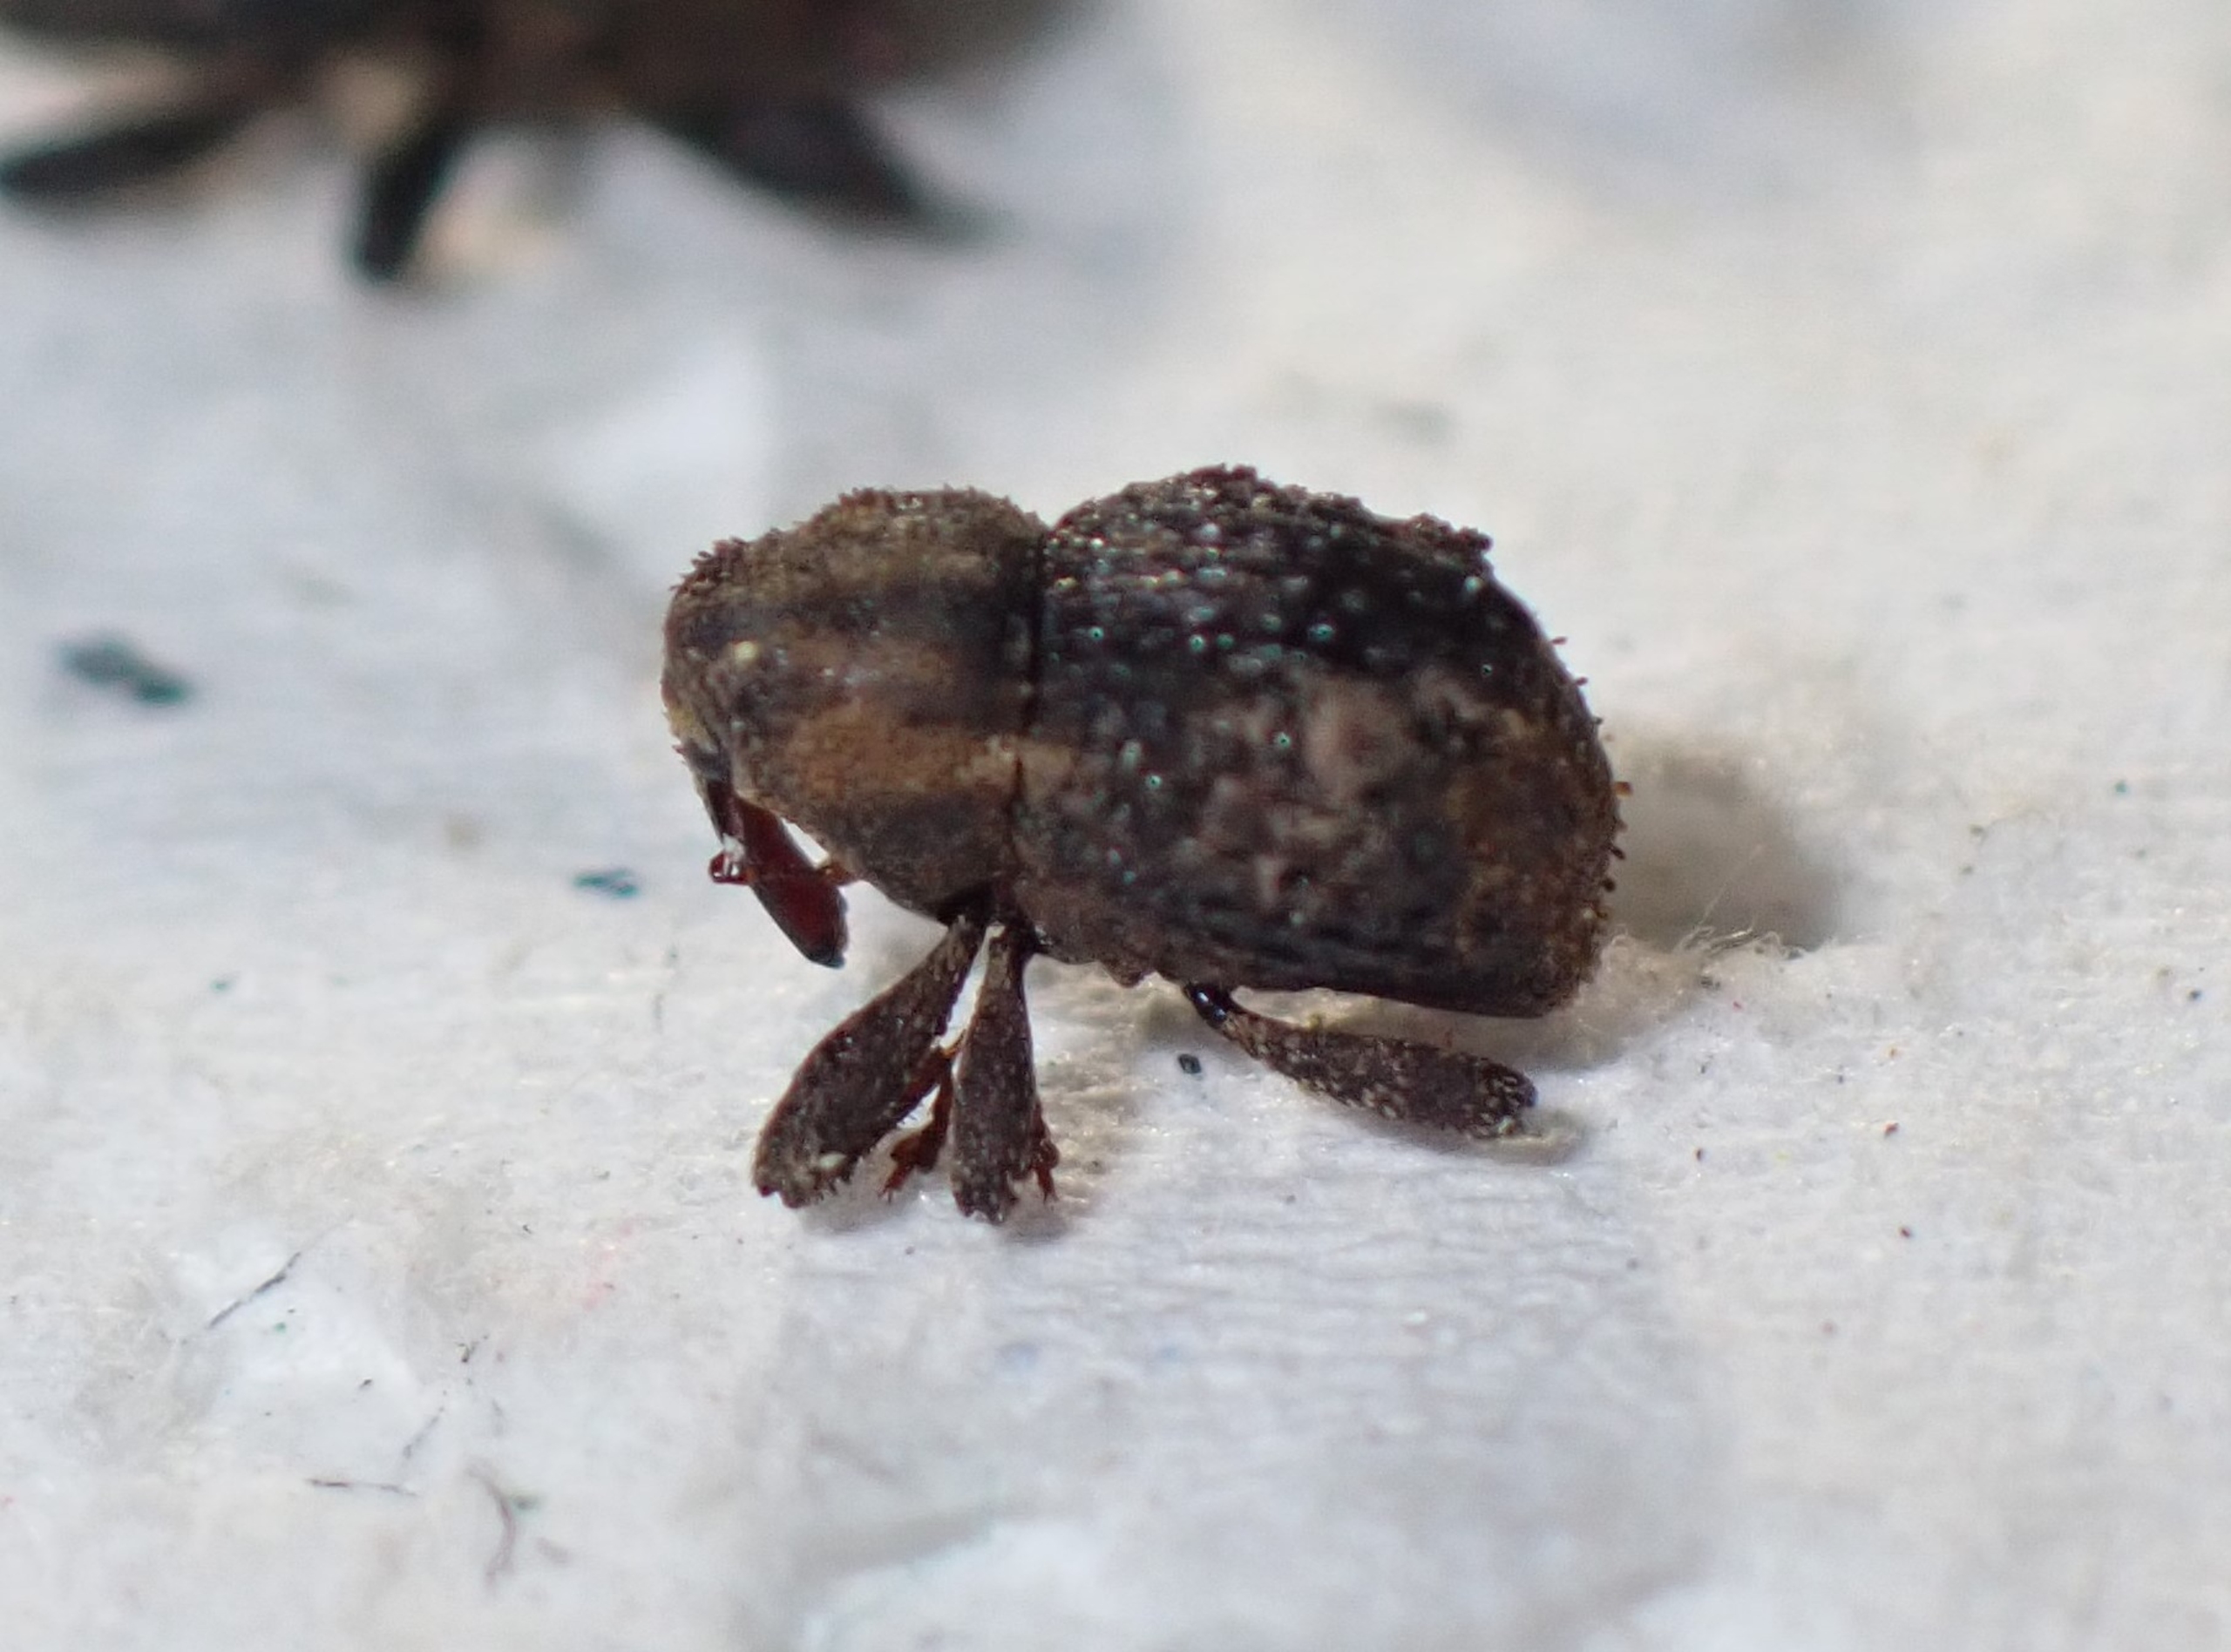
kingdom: Animalia
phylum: Arthropoda
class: Insecta
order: Coleoptera
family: Curculionidae
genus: Acalles
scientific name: Acalles camelus
